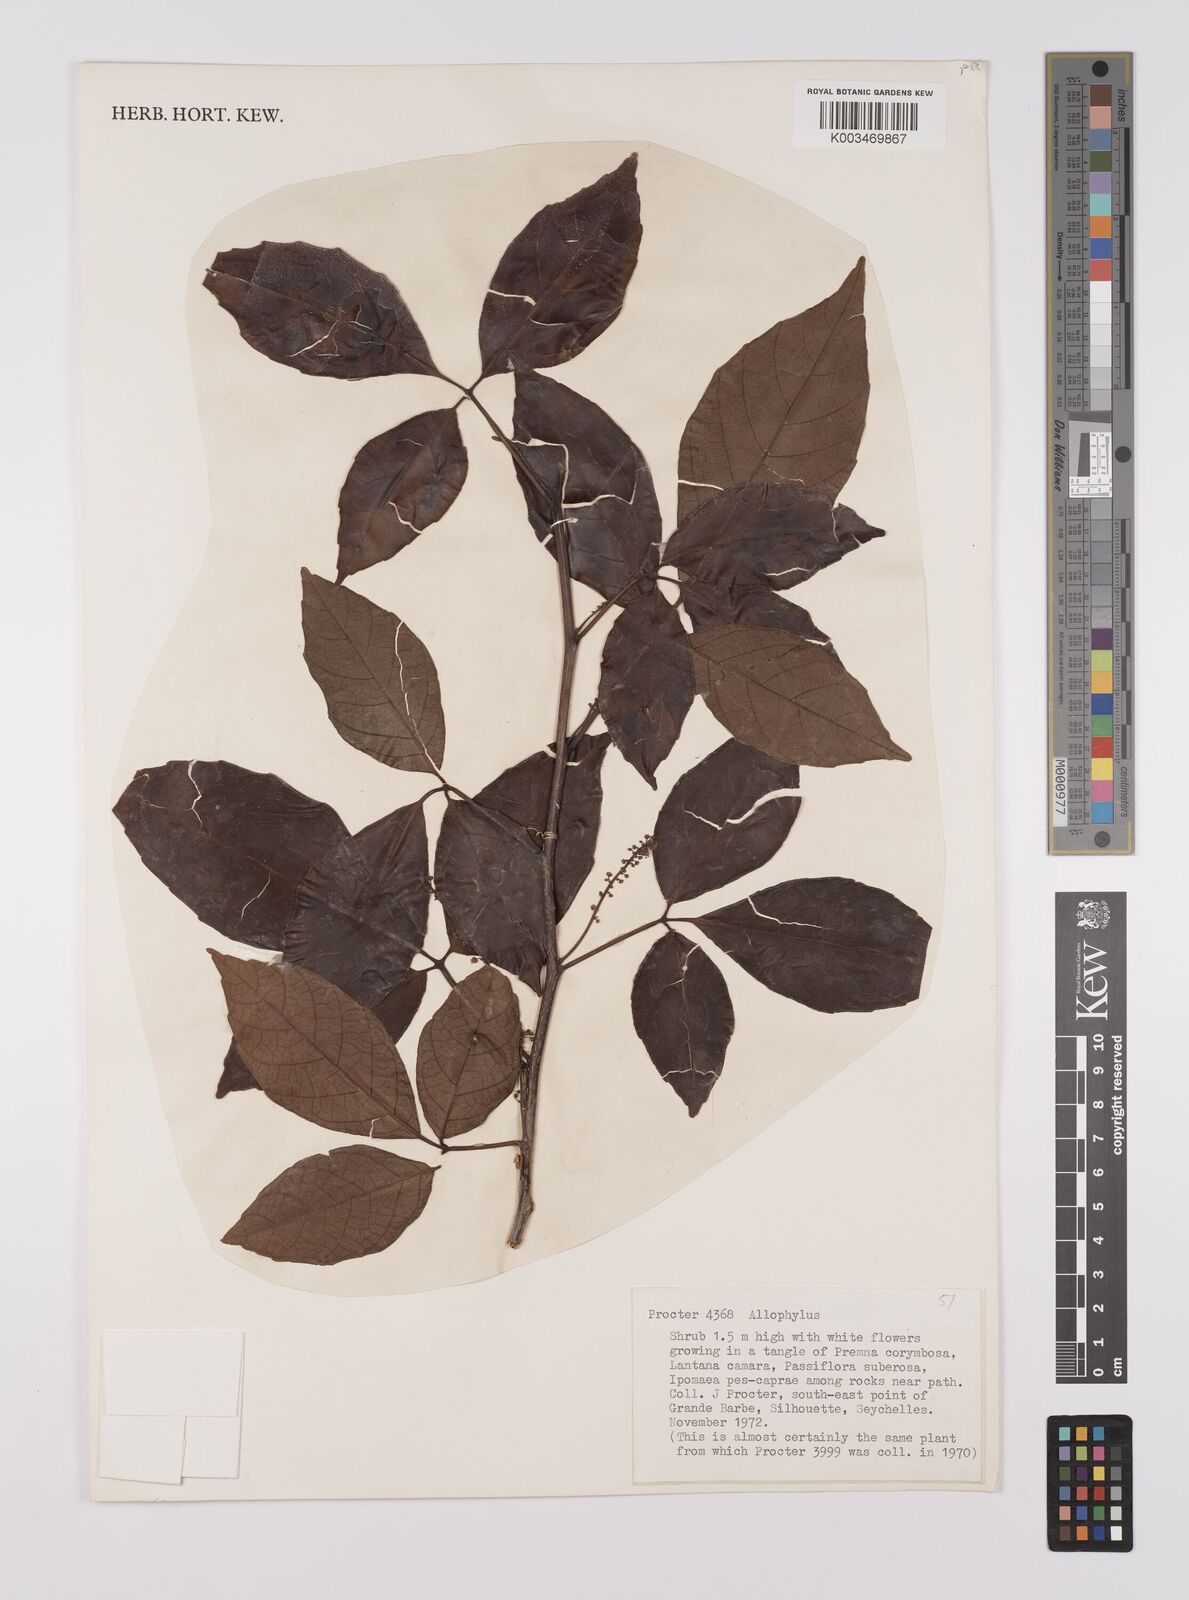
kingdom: Plantae
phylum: Tracheophyta
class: Magnoliopsida
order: Sapindales
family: Sapindaceae
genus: Allophylus
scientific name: Allophylus sechellensis
